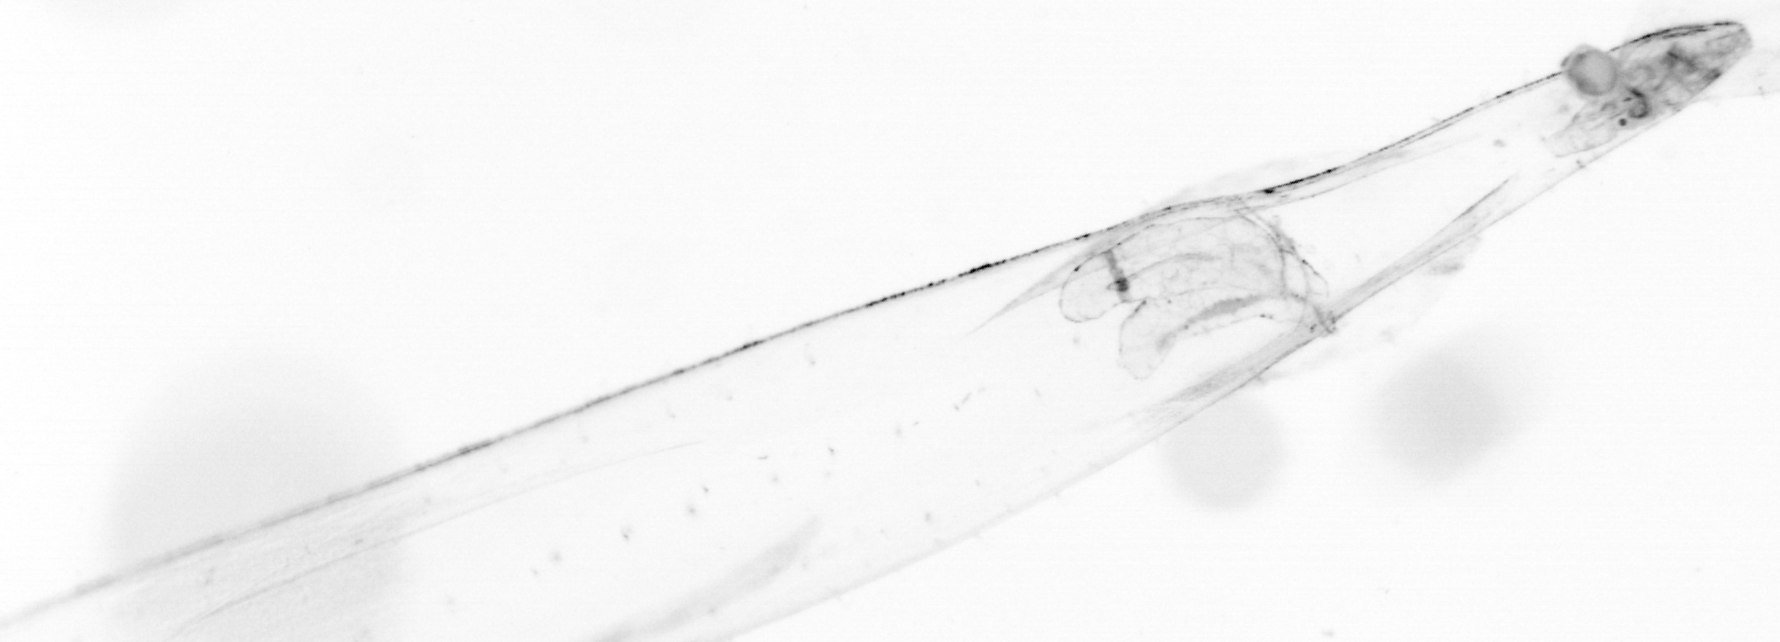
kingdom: Animalia
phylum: Chaetognatha
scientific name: Chaetognatha
